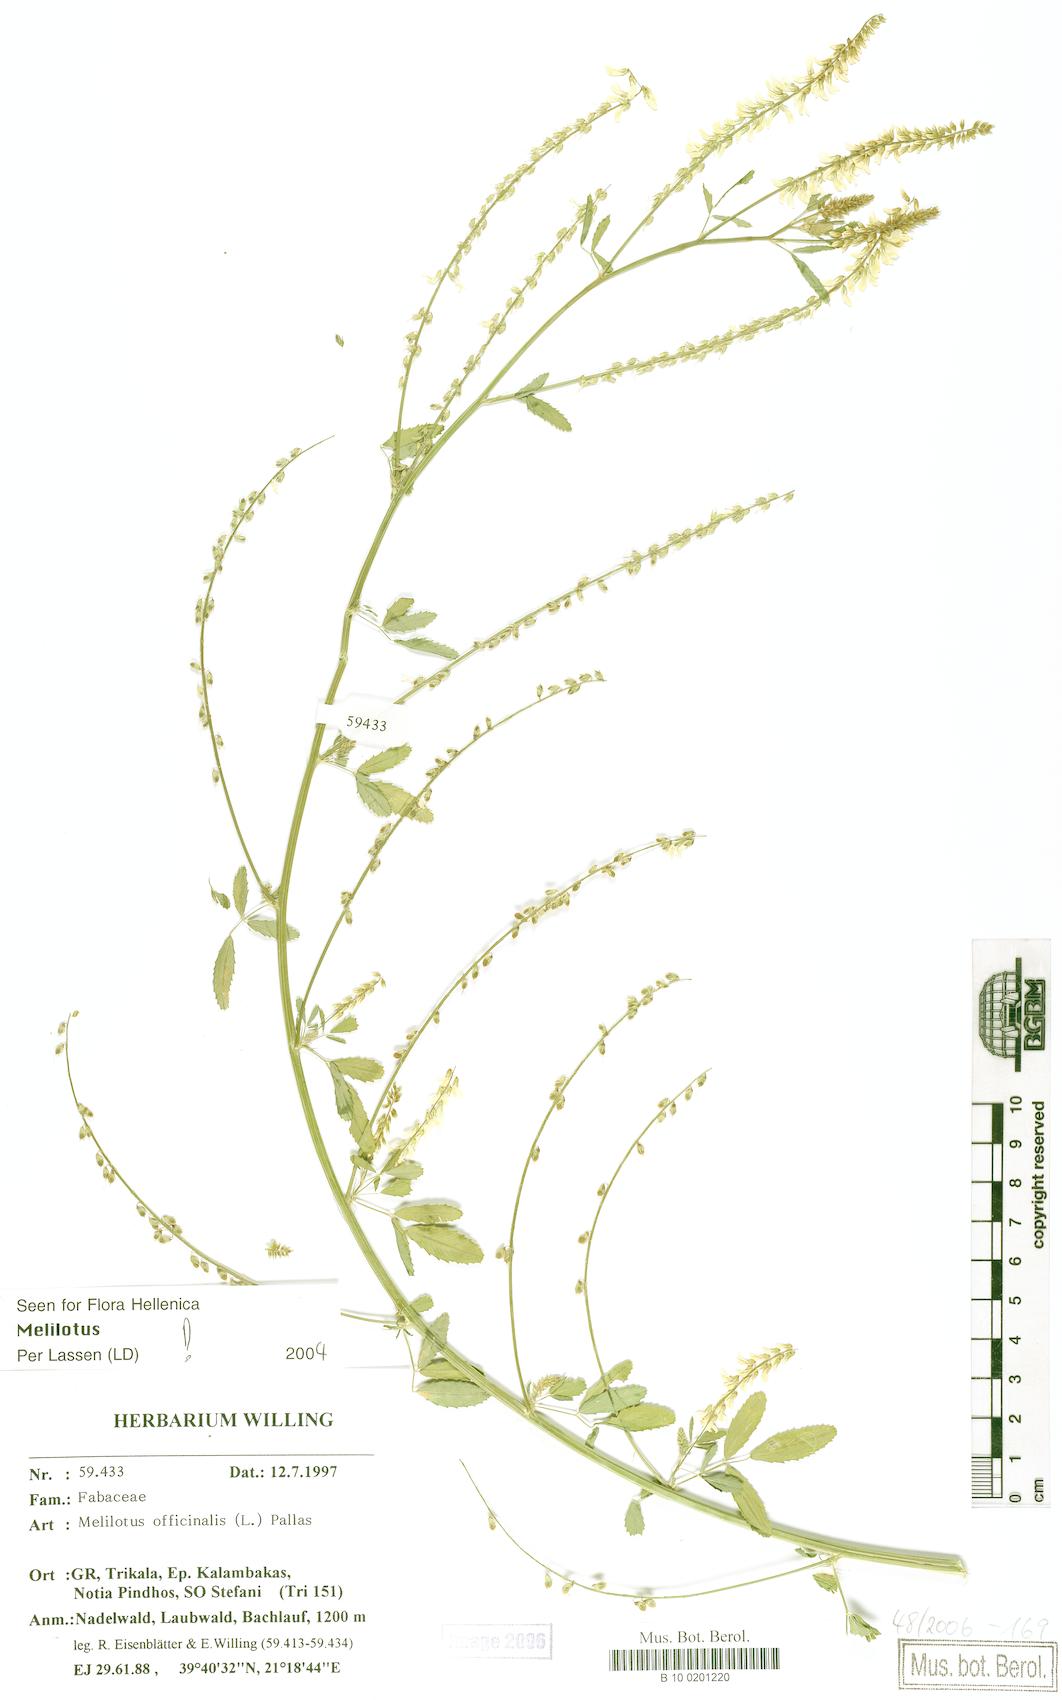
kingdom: Plantae
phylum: Tracheophyta
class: Magnoliopsida
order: Fabales
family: Fabaceae
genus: Melilotus
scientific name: Melilotus officinalis
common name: Sweetclover
